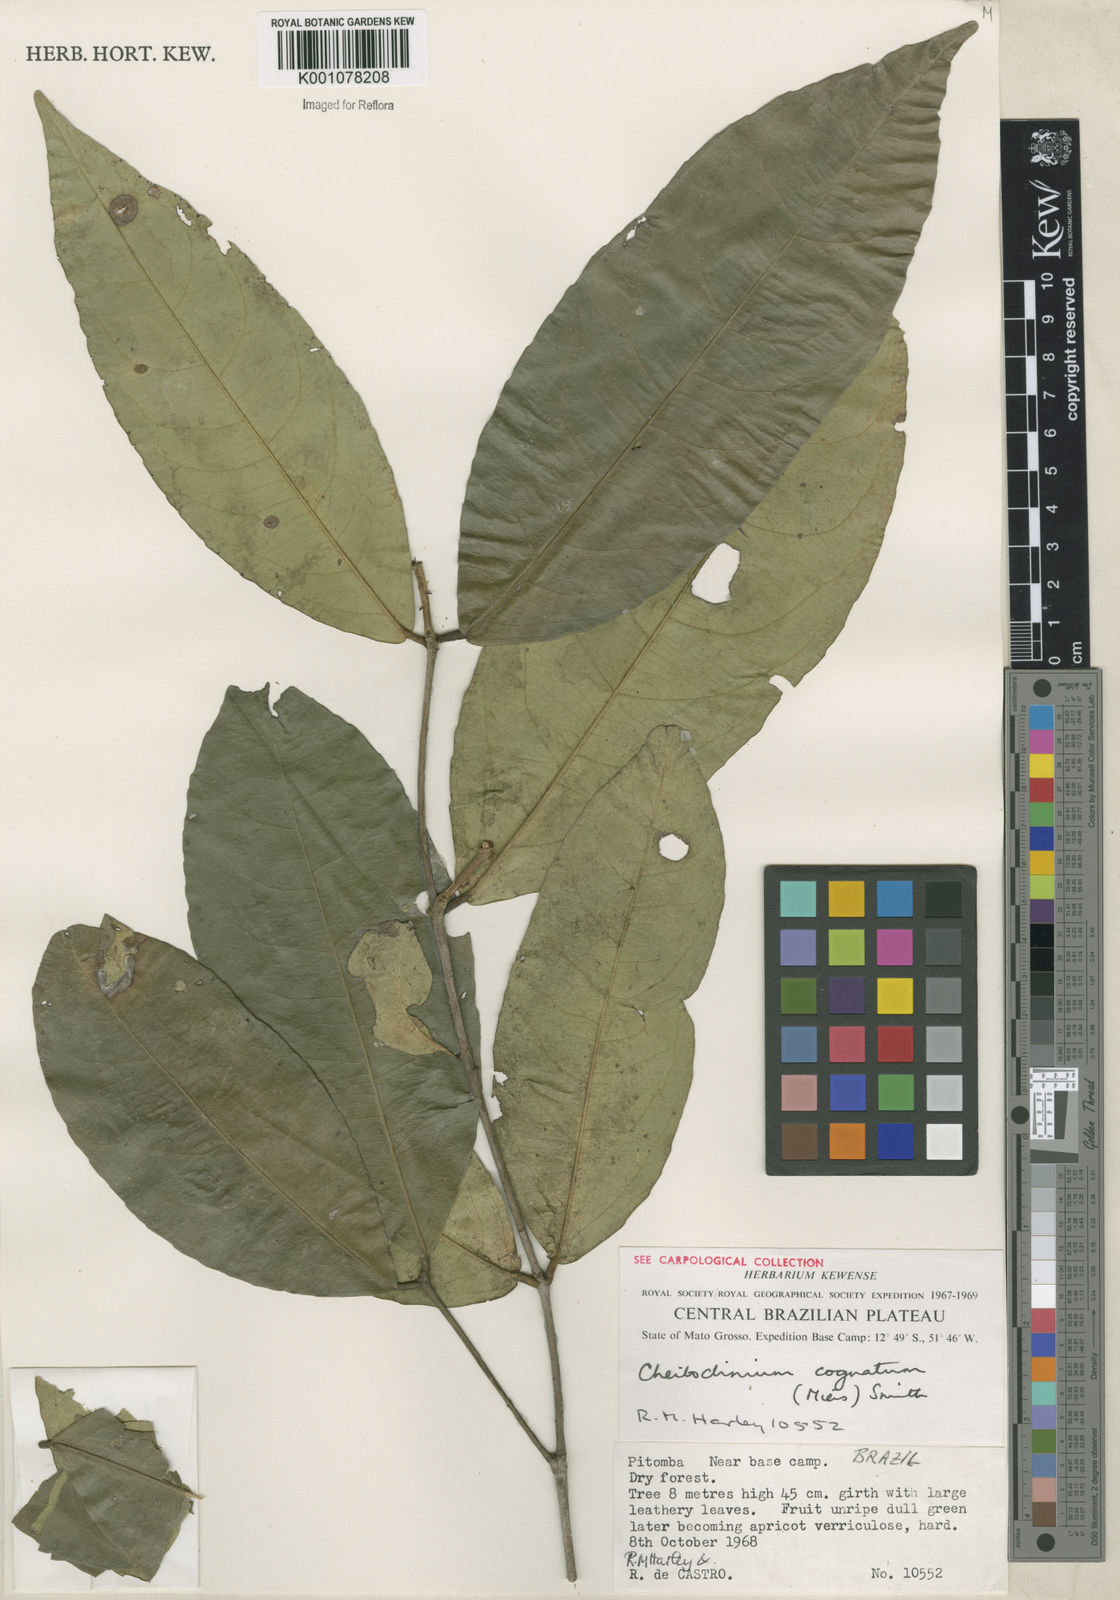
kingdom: Plantae
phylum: Tracheophyta
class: Magnoliopsida
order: Celastrales
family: Celastraceae
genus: Cheiloclinium
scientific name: Cheiloclinium cognatum
